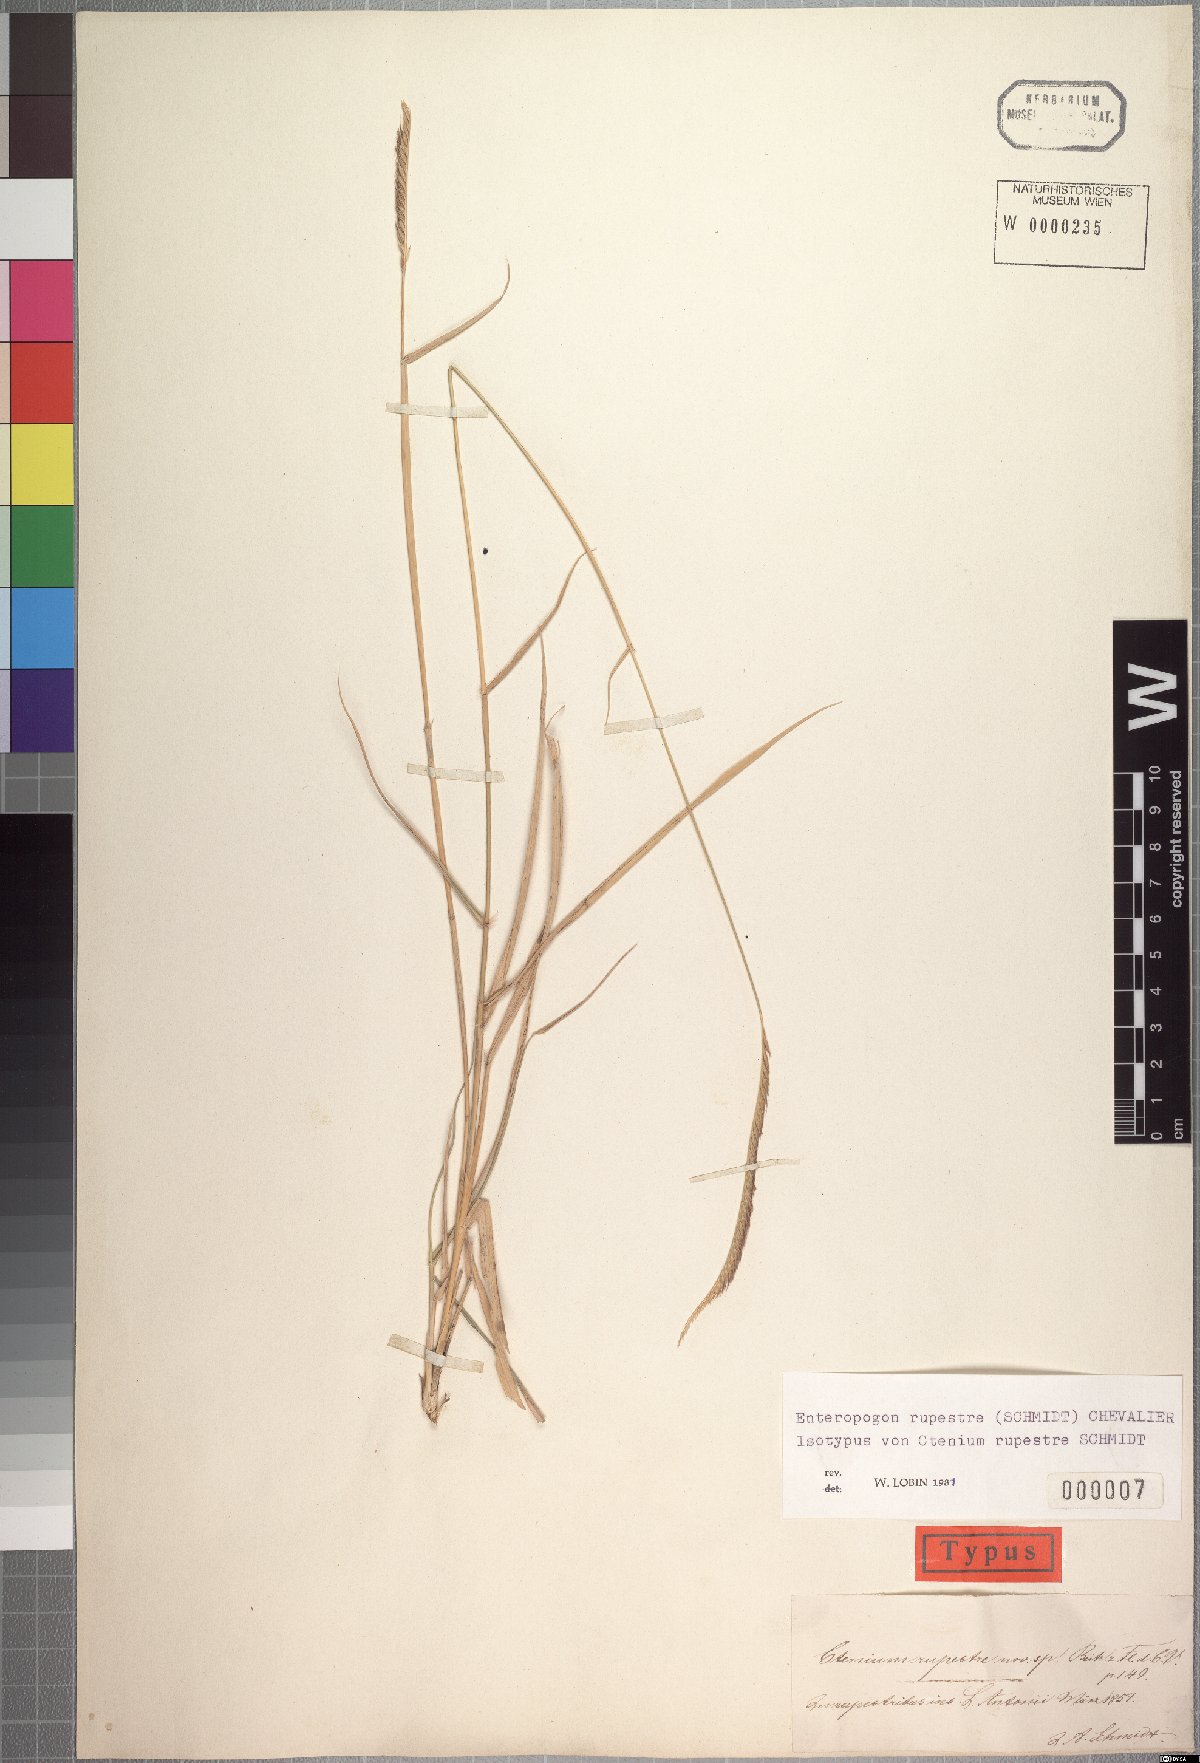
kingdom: Plantae
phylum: Tracheophyta
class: Liliopsida
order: Poales
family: Poaceae
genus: Enteropogon
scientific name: Enteropogon rupestris
